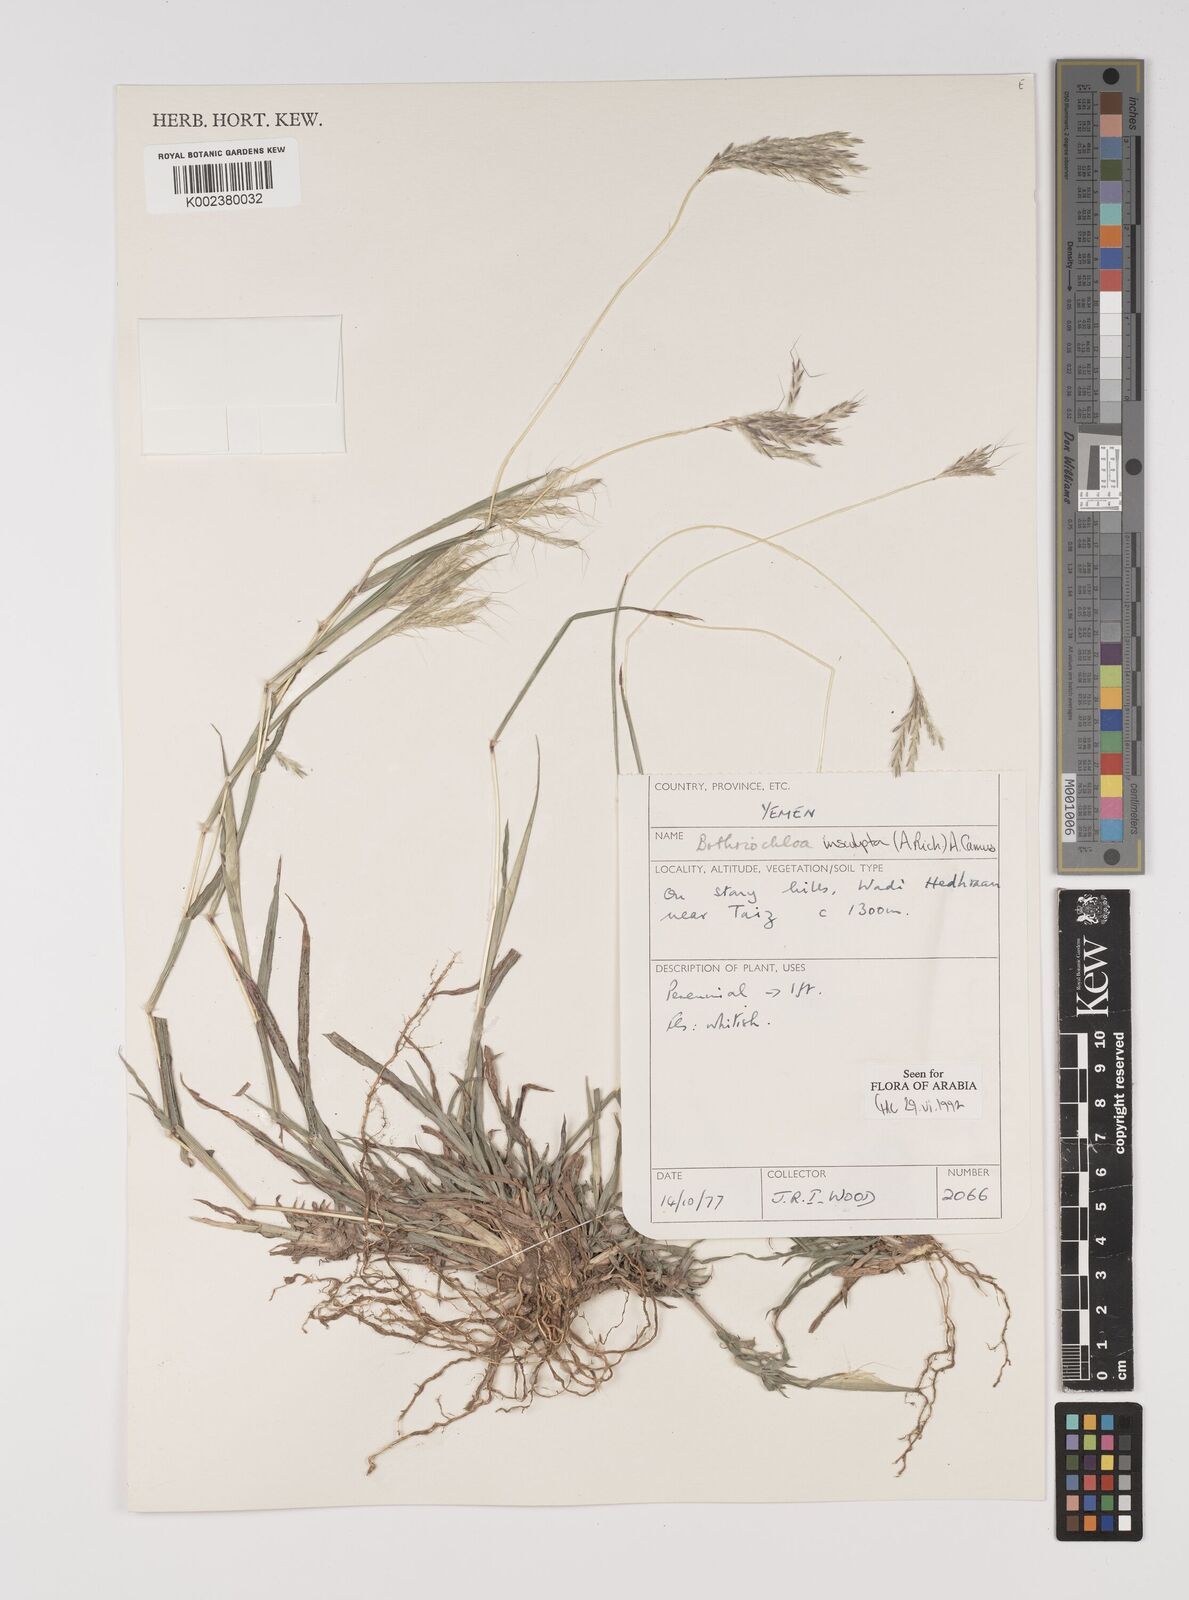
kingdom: Plantae
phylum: Tracheophyta
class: Liliopsida
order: Poales
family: Poaceae
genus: Bothriochloa
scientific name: Bothriochloa insculpta
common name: Creeping-bluegrass
